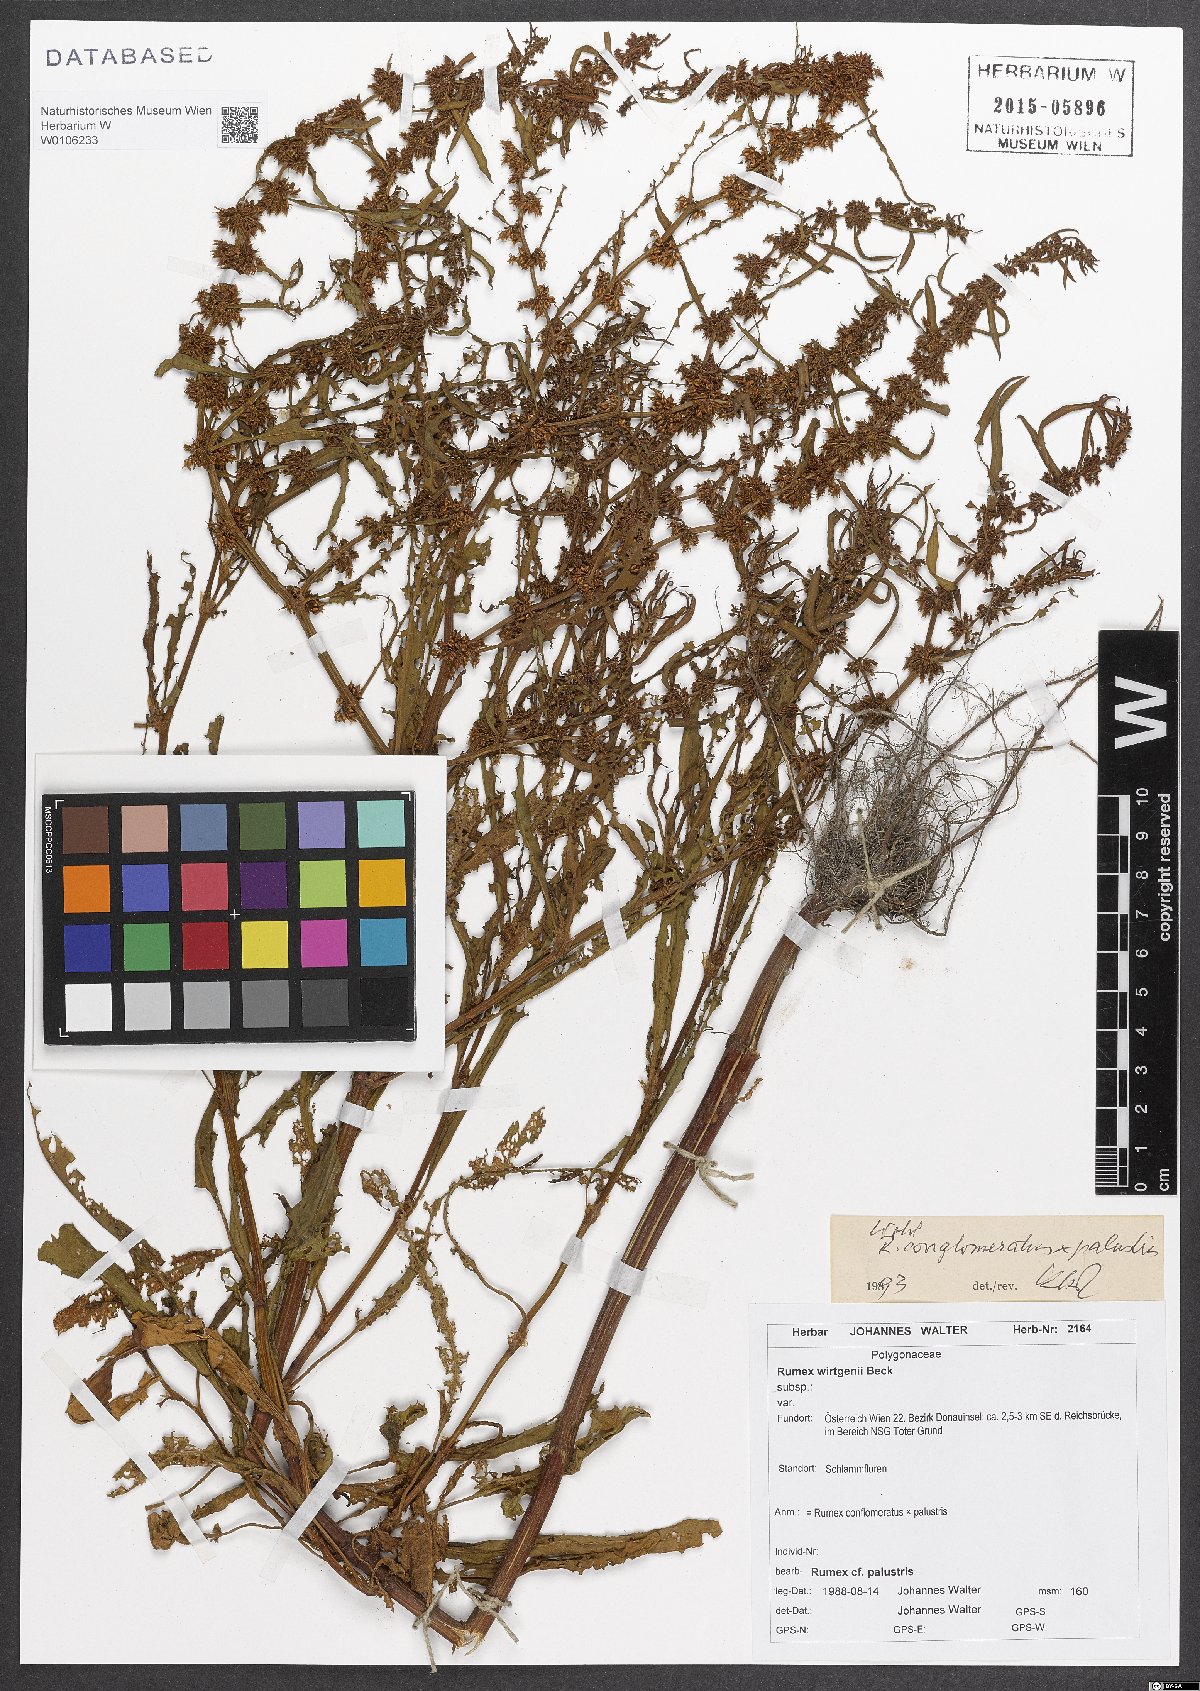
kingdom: Plantae
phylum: Tracheophyta
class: Magnoliopsida
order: Caryophyllales
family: Polygonaceae
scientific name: Polygonaceae
